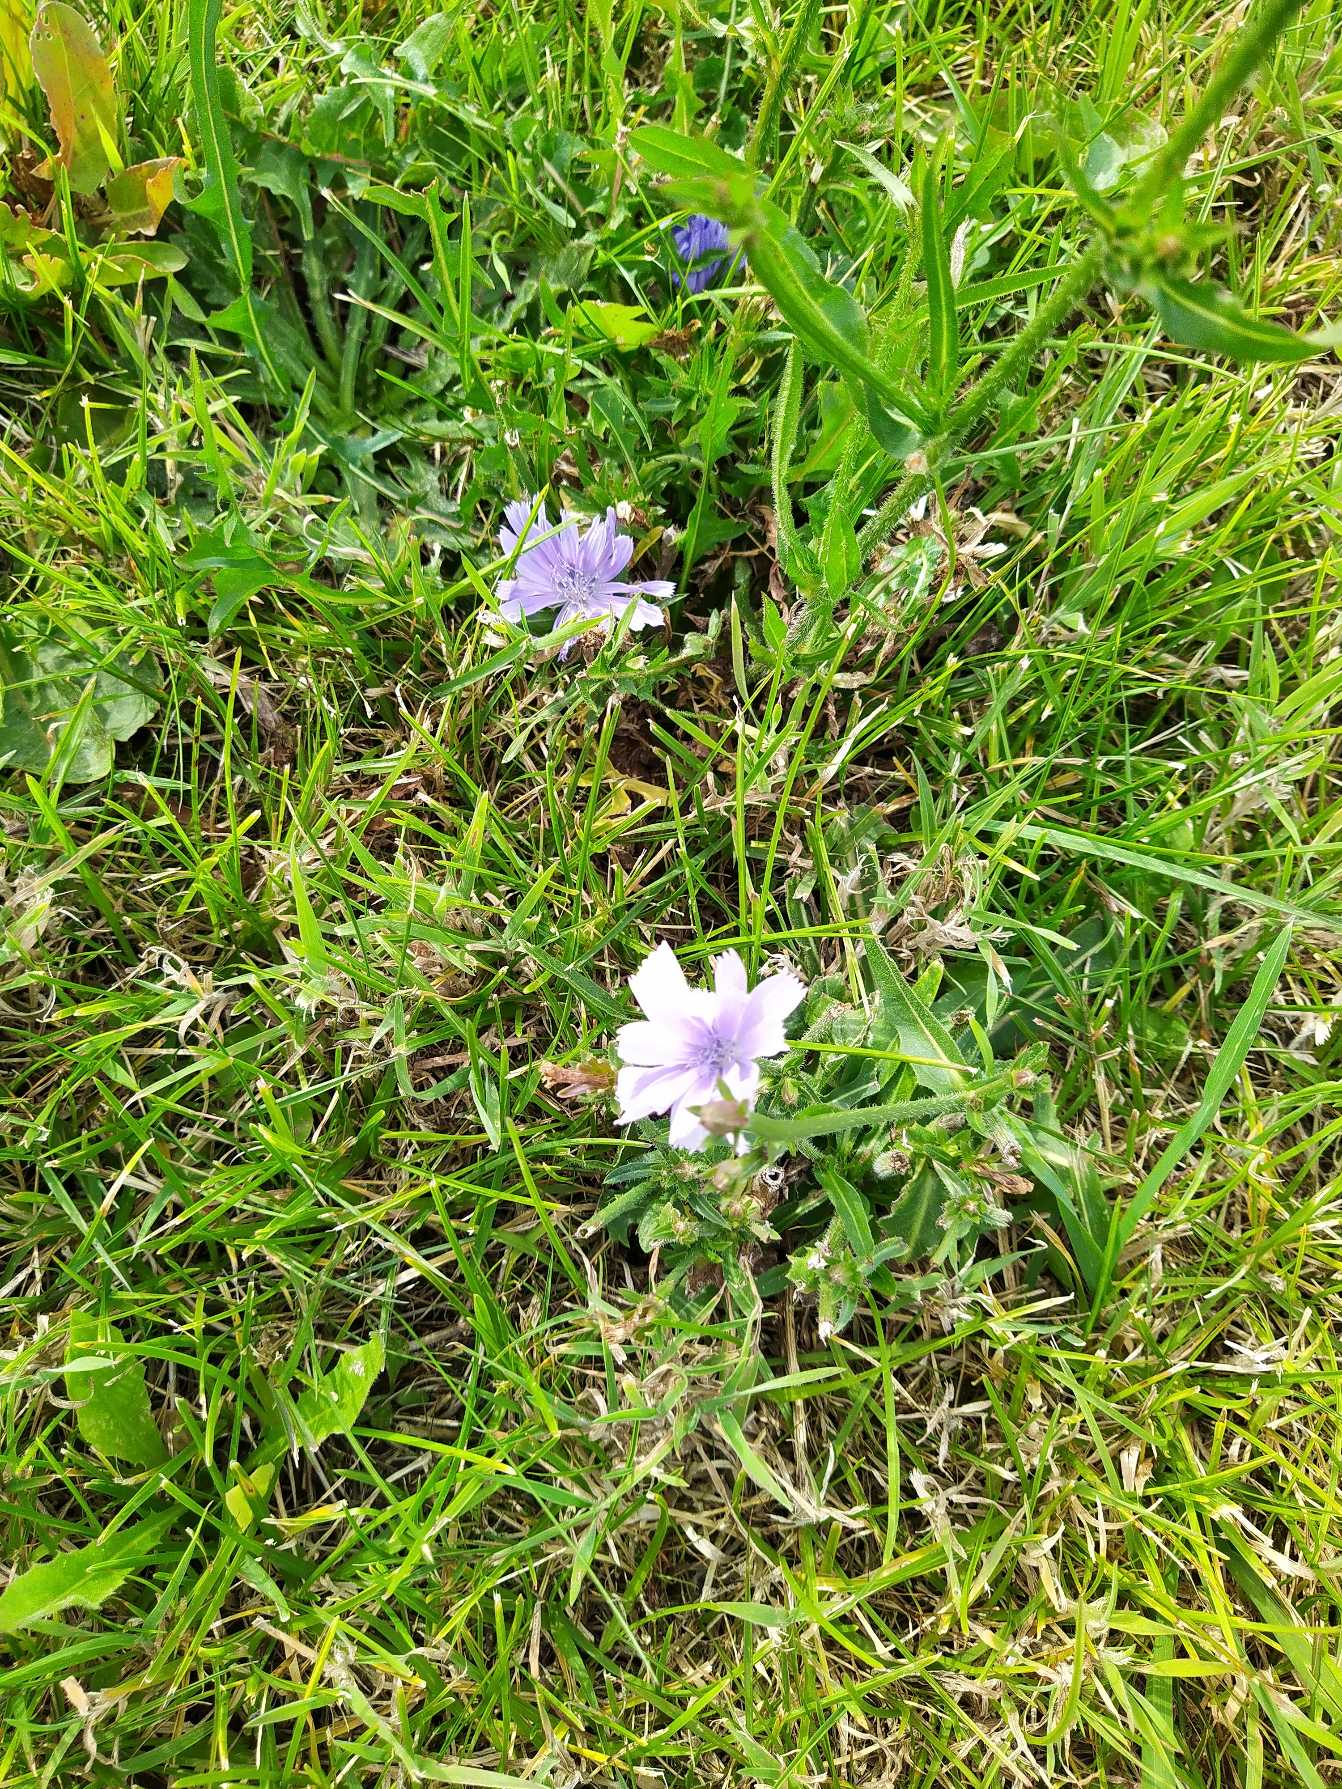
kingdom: Plantae
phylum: Tracheophyta
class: Magnoliopsida
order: Asterales
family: Asteraceae
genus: Cichorium
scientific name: Cichorium intybus
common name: Cikorie
